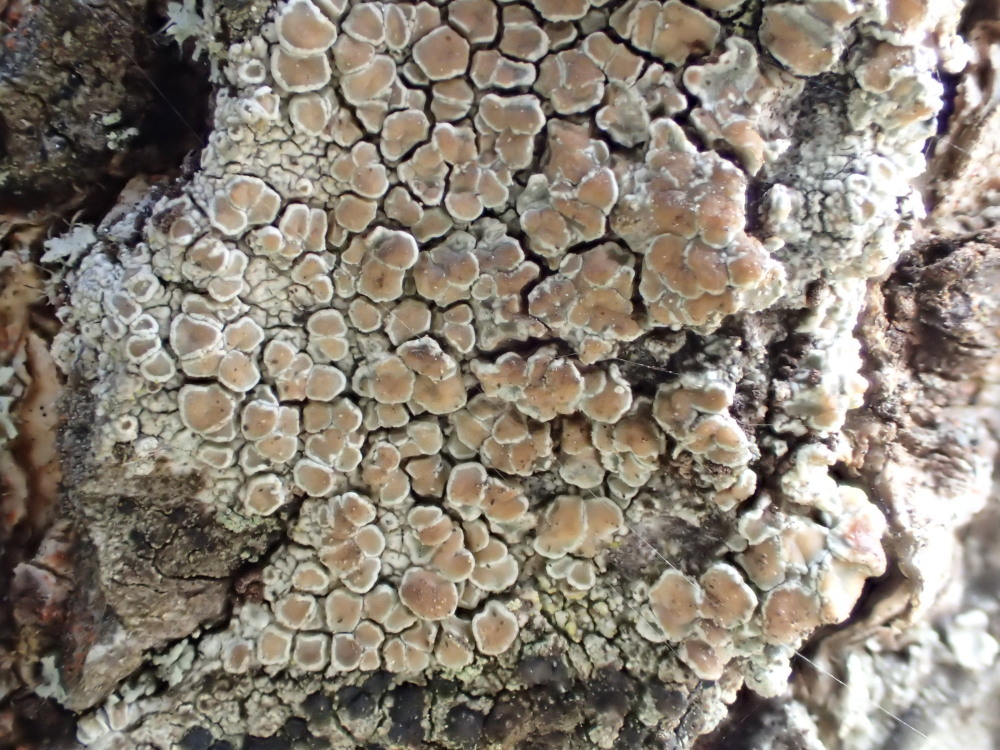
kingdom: Fungi
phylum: Ascomycota
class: Lecanoromycetes
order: Lecanorales
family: Lecanoraceae
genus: Lecanora
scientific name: Lecanora chlarotera
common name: brun kantskivelav
